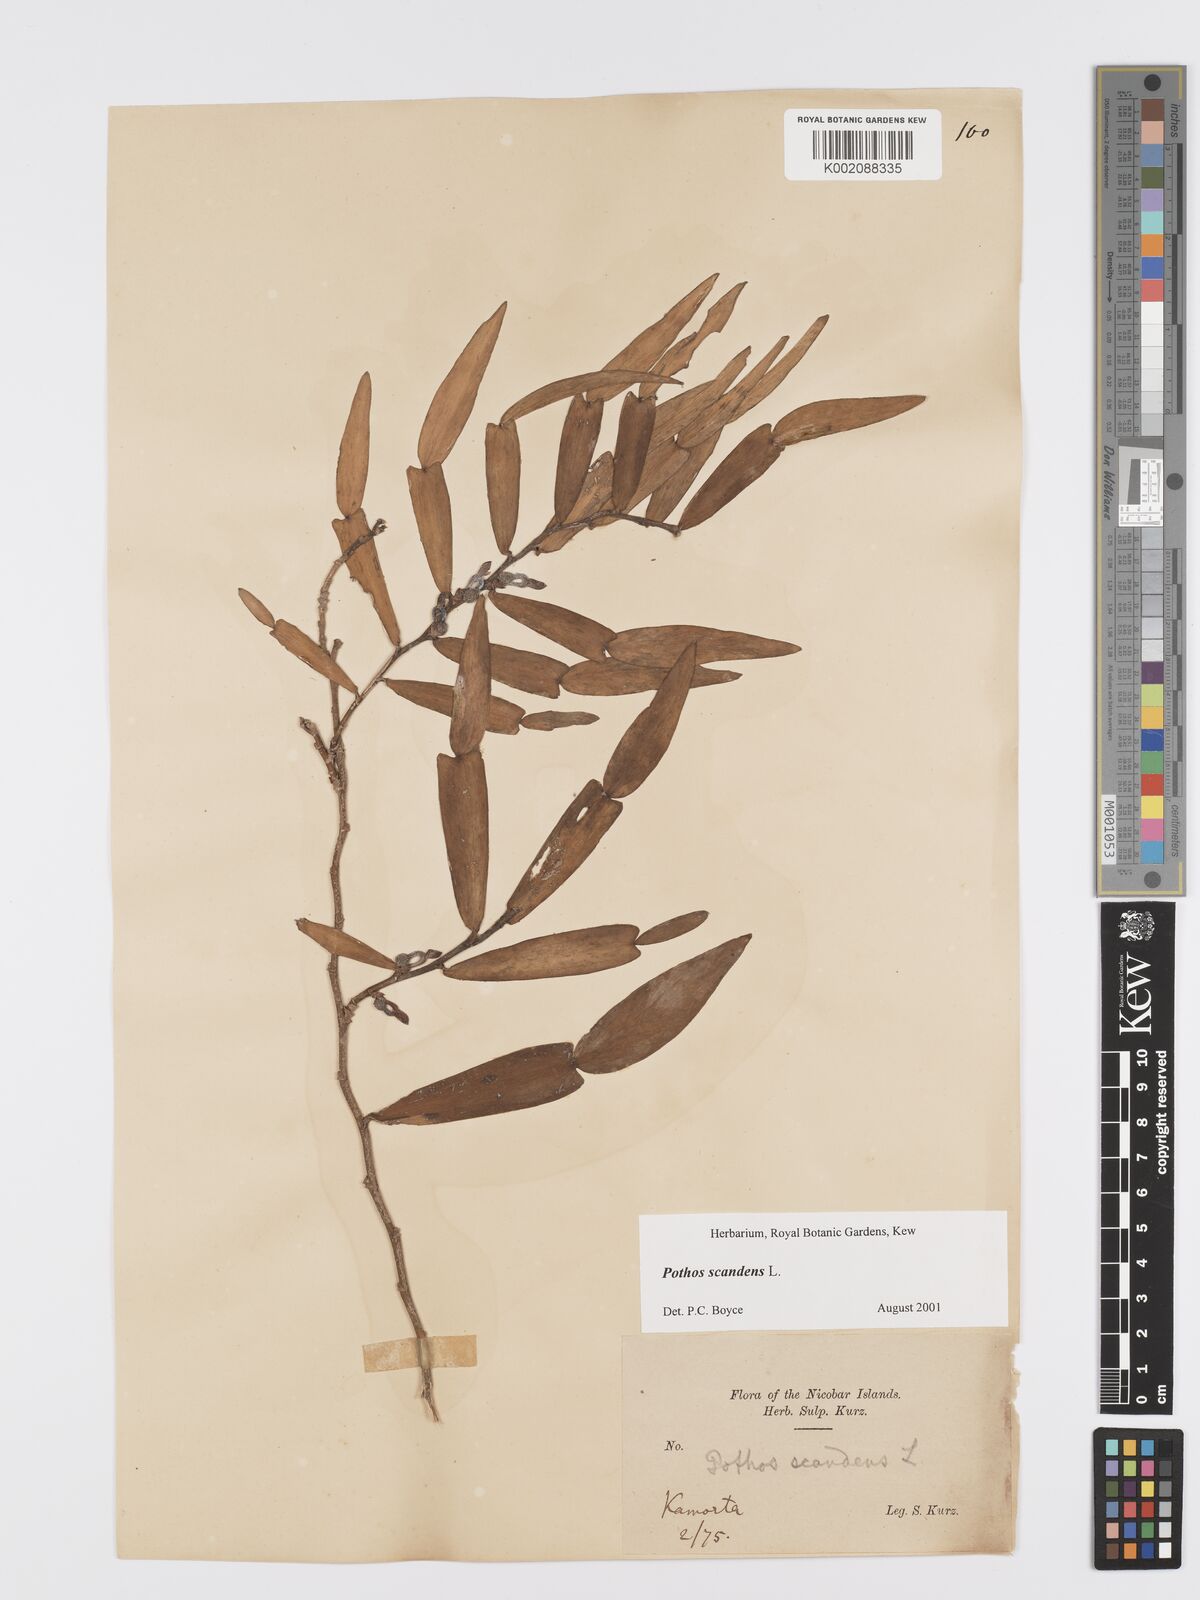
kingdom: Plantae
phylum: Tracheophyta
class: Liliopsida
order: Alismatales
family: Araceae
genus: Pothos
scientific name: Pothos scandens
